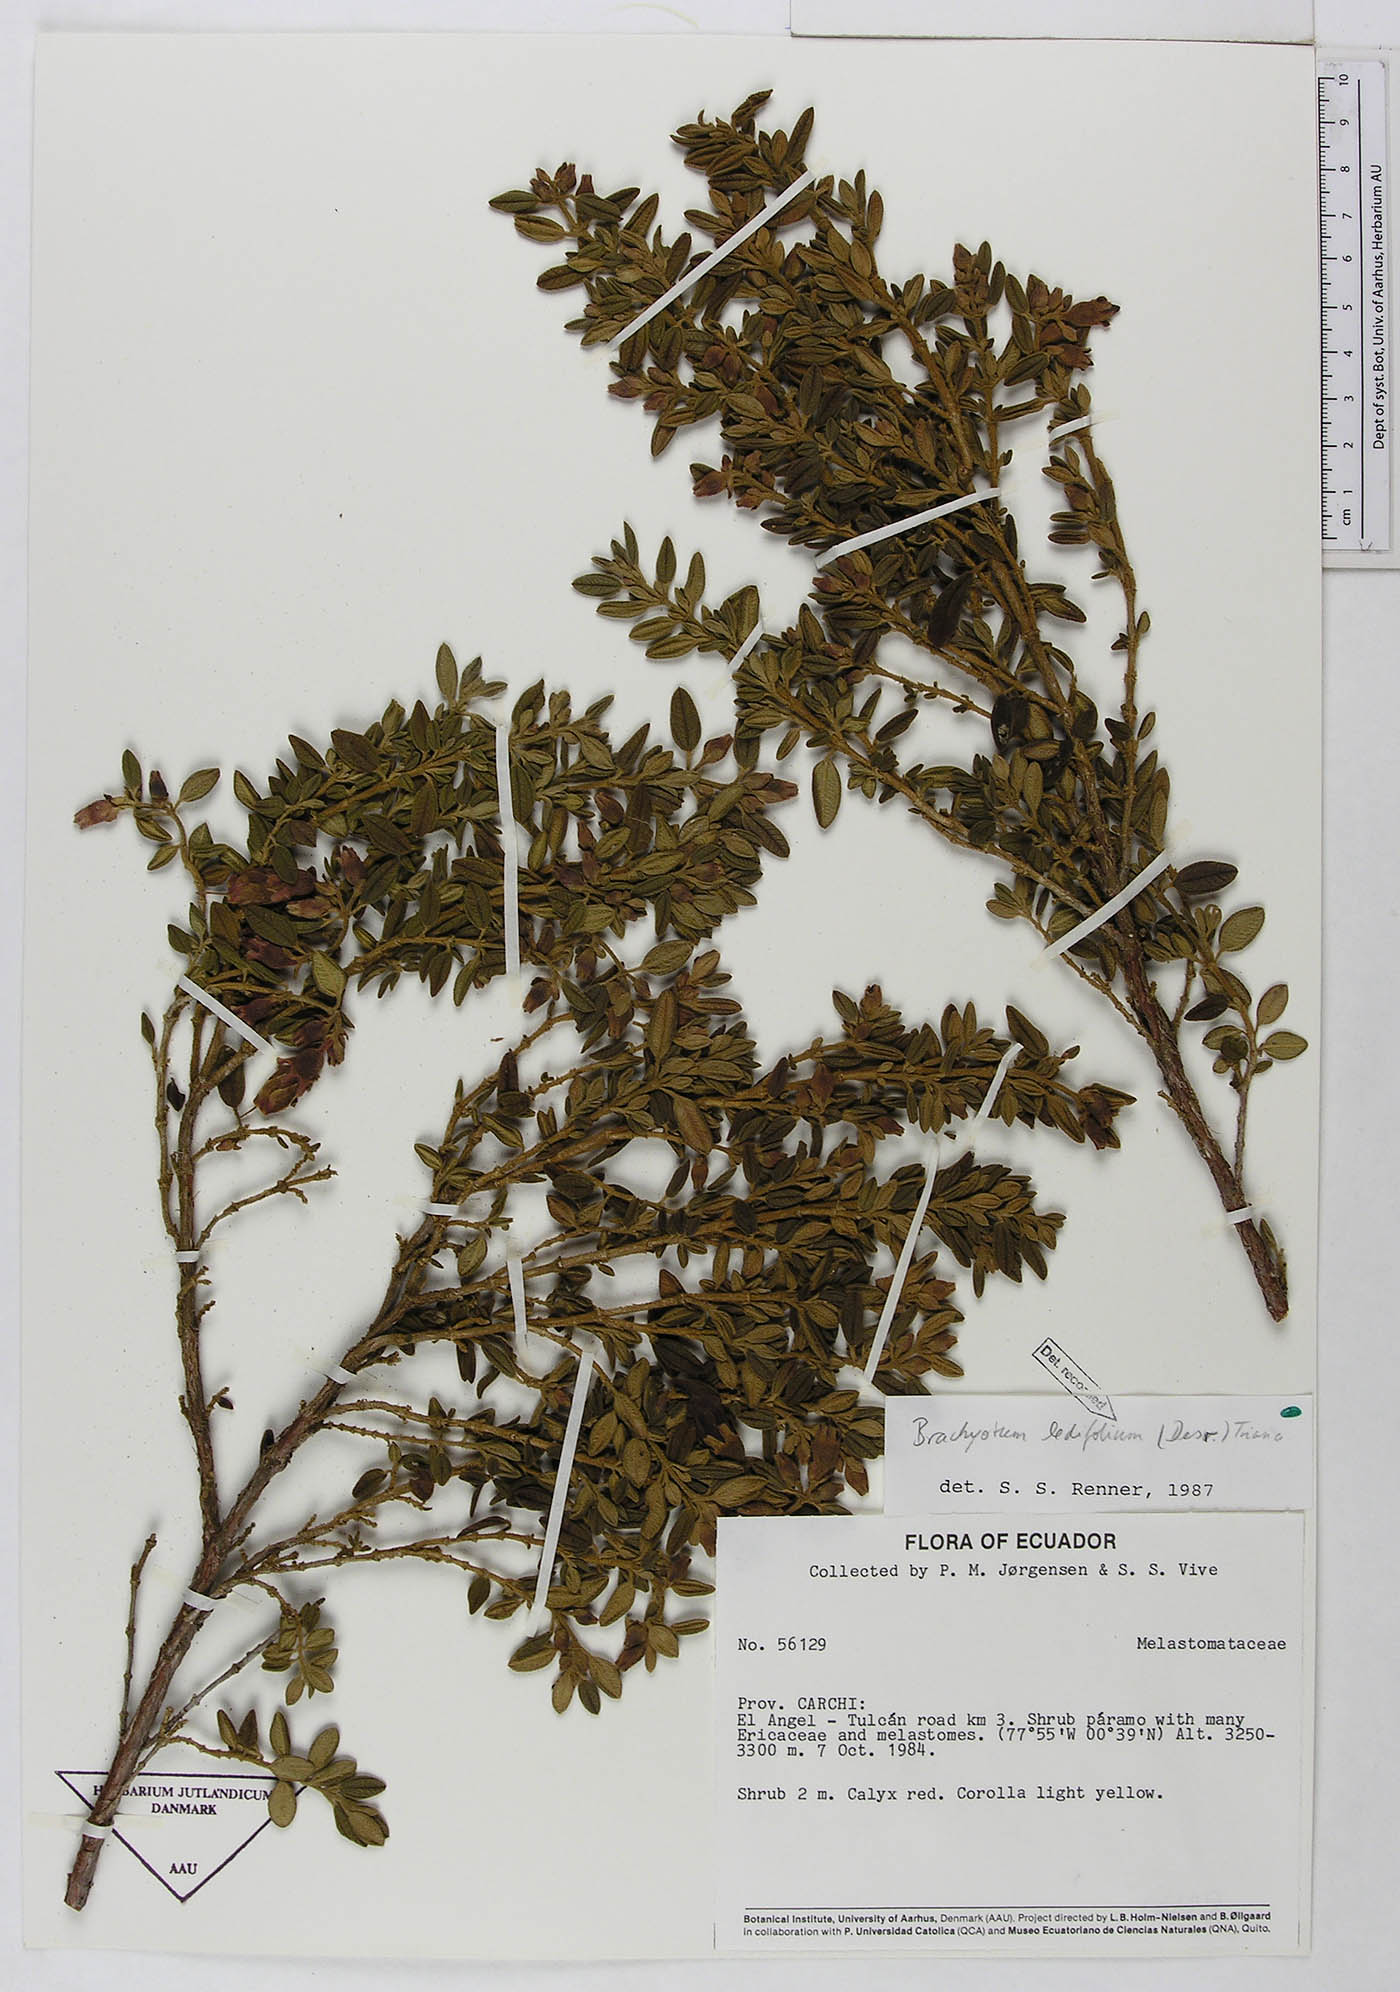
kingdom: Plantae
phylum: Tracheophyta
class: Magnoliopsida
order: Myrtales
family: Melastomataceae
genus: Brachyotum
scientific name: Brachyotum ledifolium
